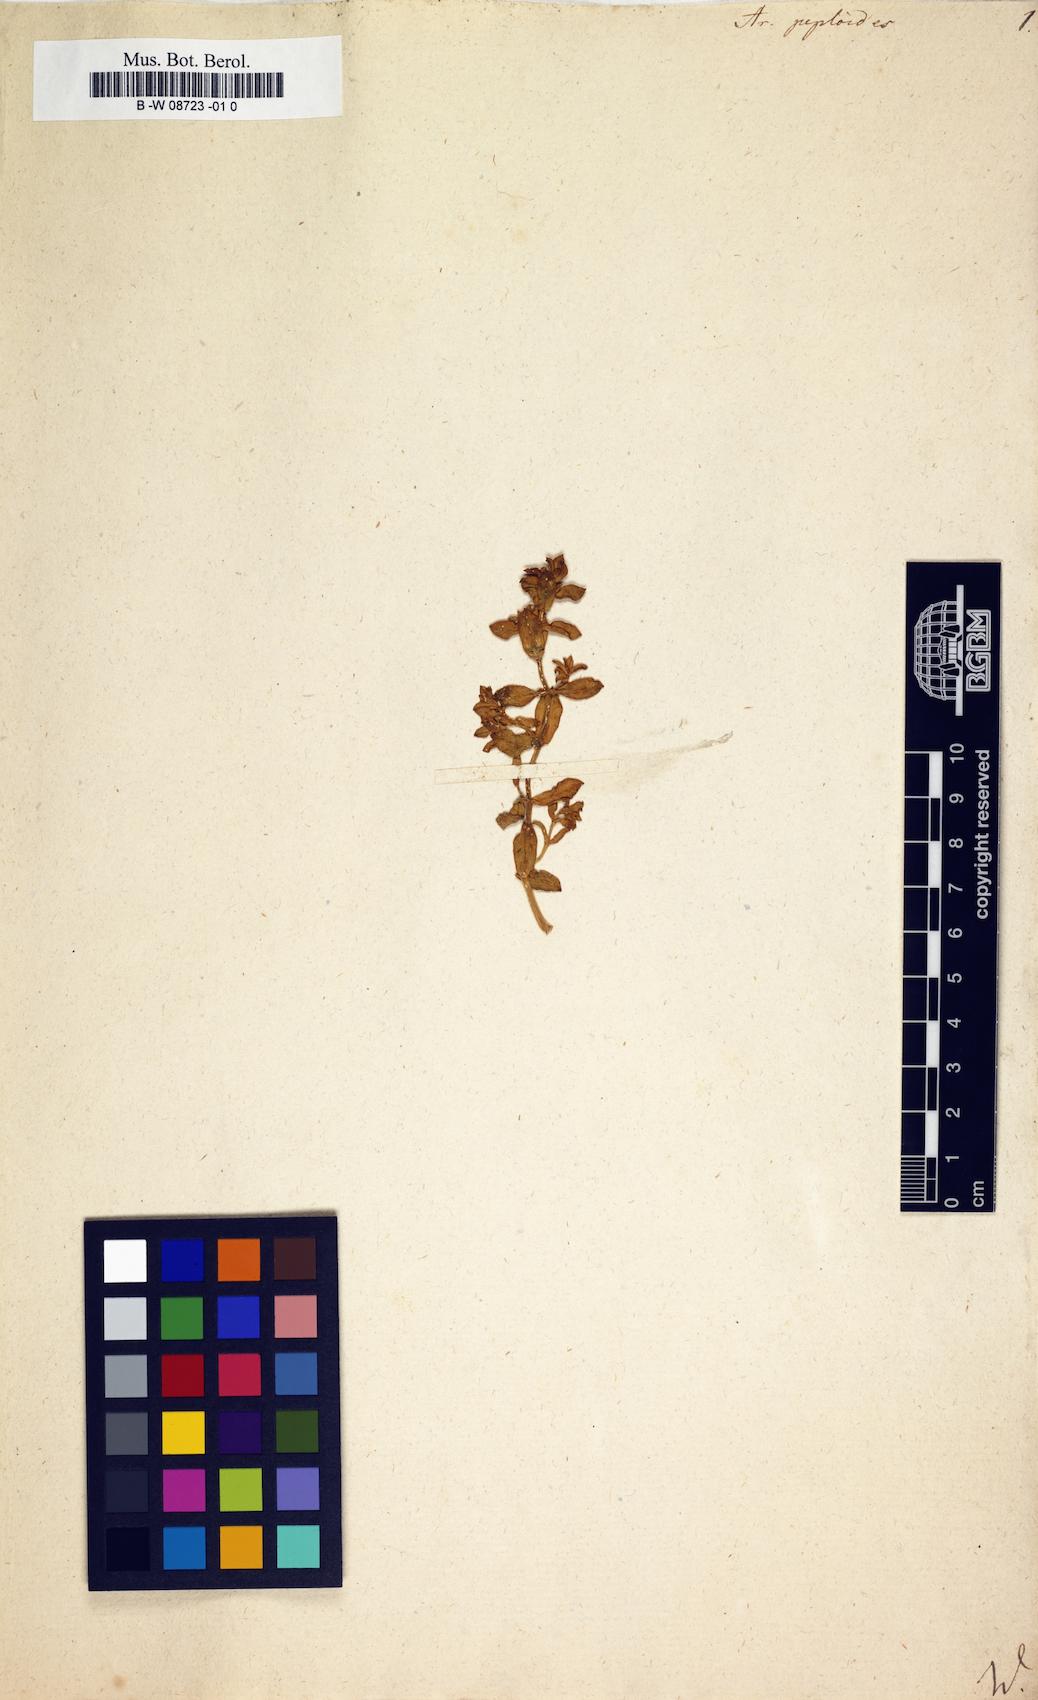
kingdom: Plantae
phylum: Tracheophyta
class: Magnoliopsida
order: Caryophyllales
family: Caryophyllaceae
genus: Honckenya
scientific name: Honckenya peploides
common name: Sea sandwort
